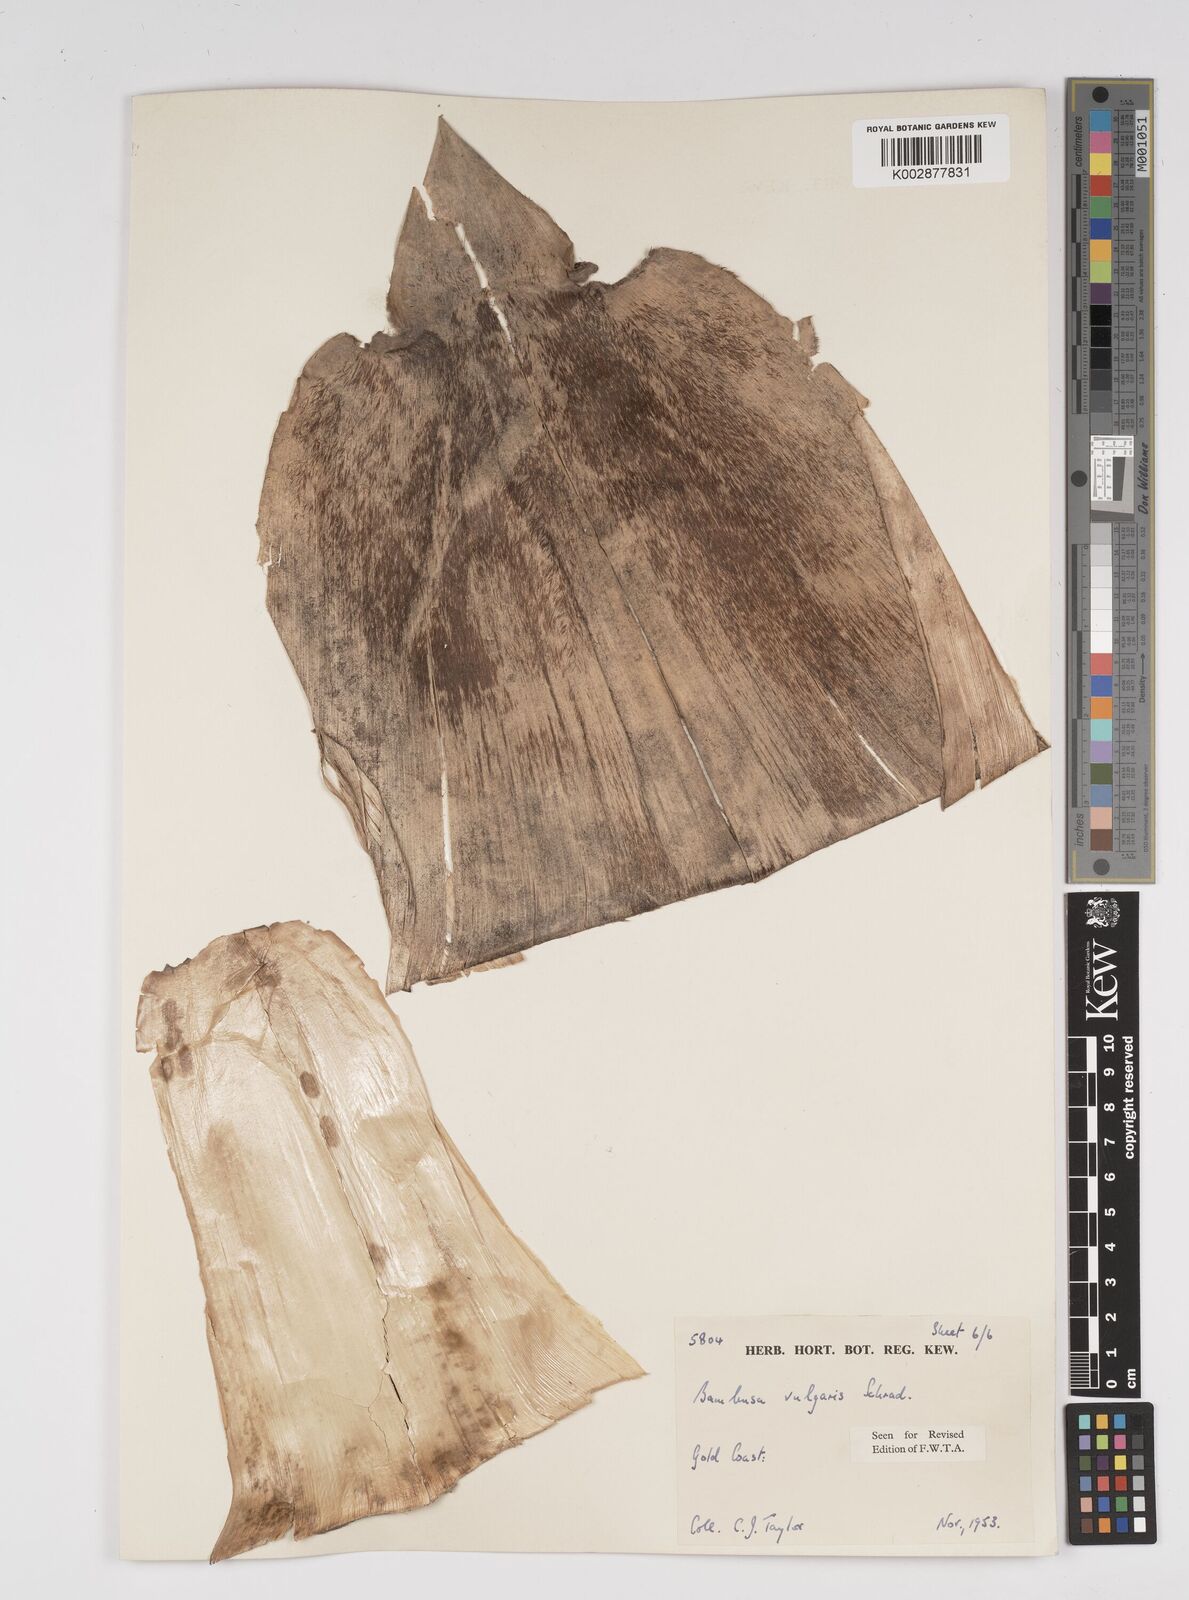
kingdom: Plantae
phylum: Tracheophyta
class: Liliopsida
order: Poales
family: Poaceae
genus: Bambusa
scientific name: Bambusa vulgaris
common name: Common bamboo
